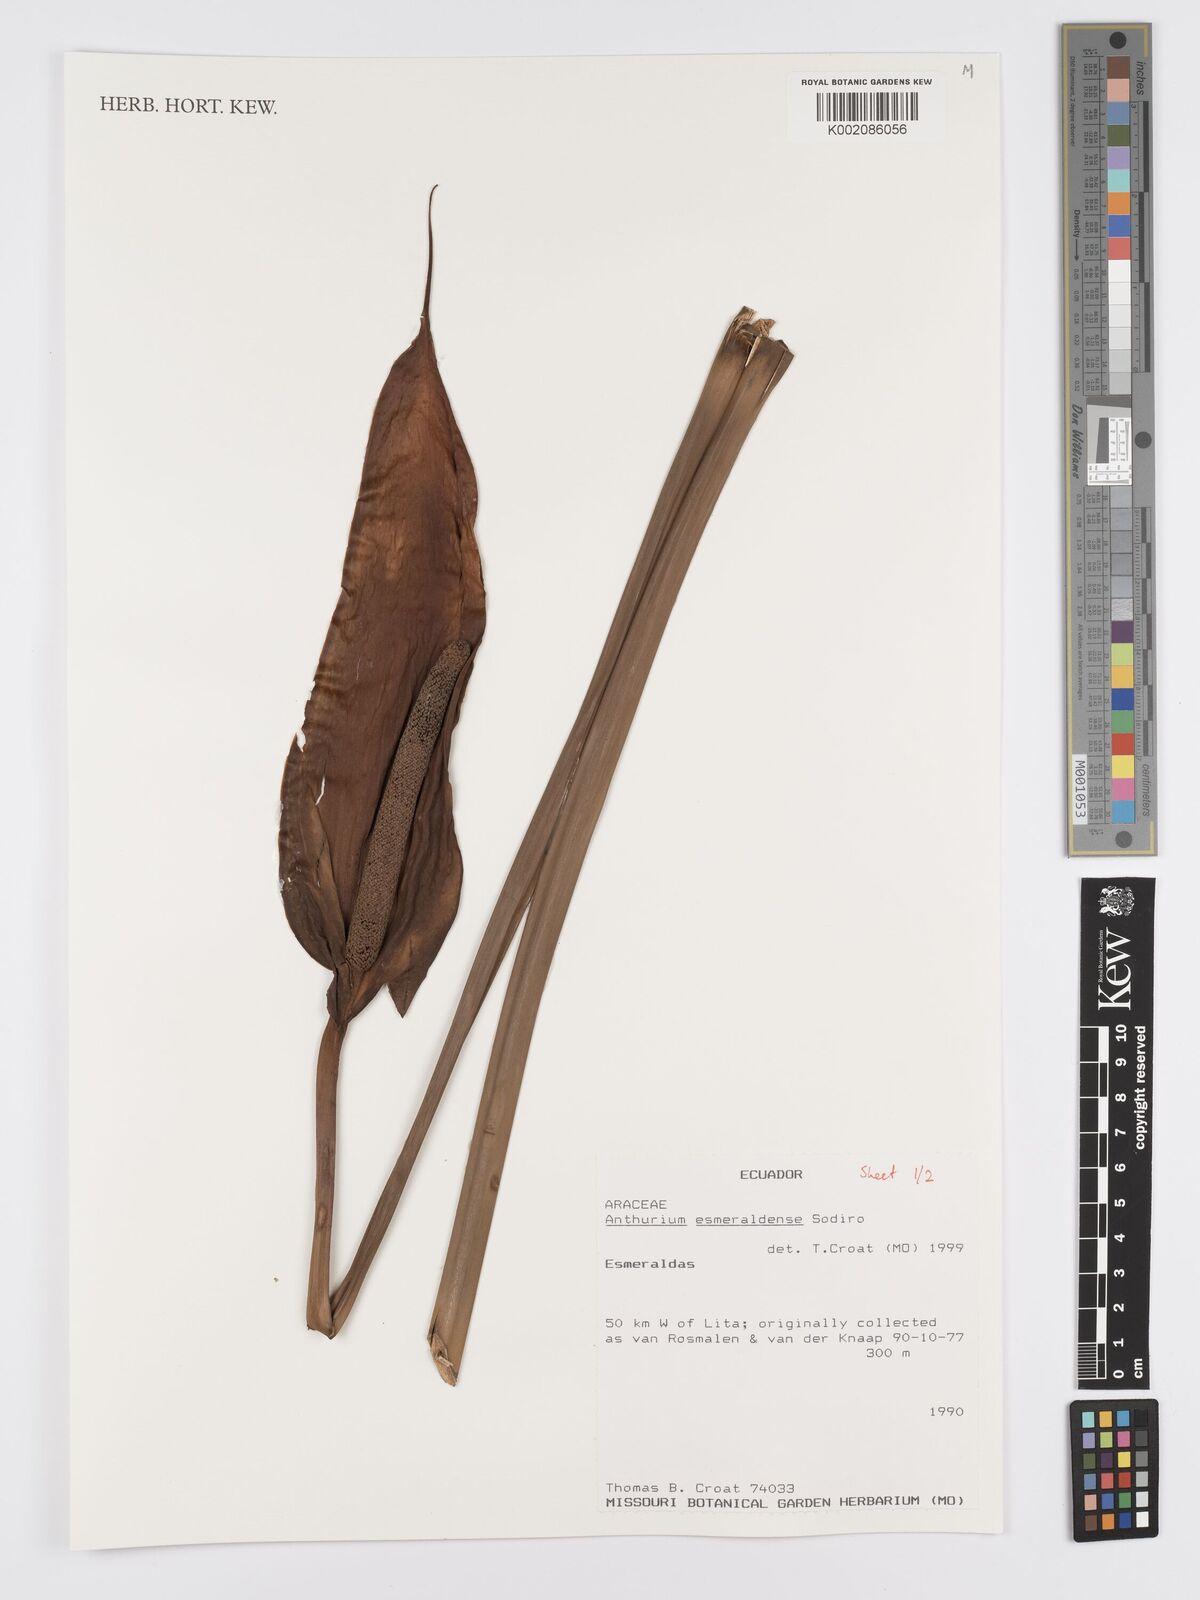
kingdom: Plantae
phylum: Tracheophyta
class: Liliopsida
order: Alismatales
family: Araceae
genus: Anthurium
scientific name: Anthurium esmeraldense
